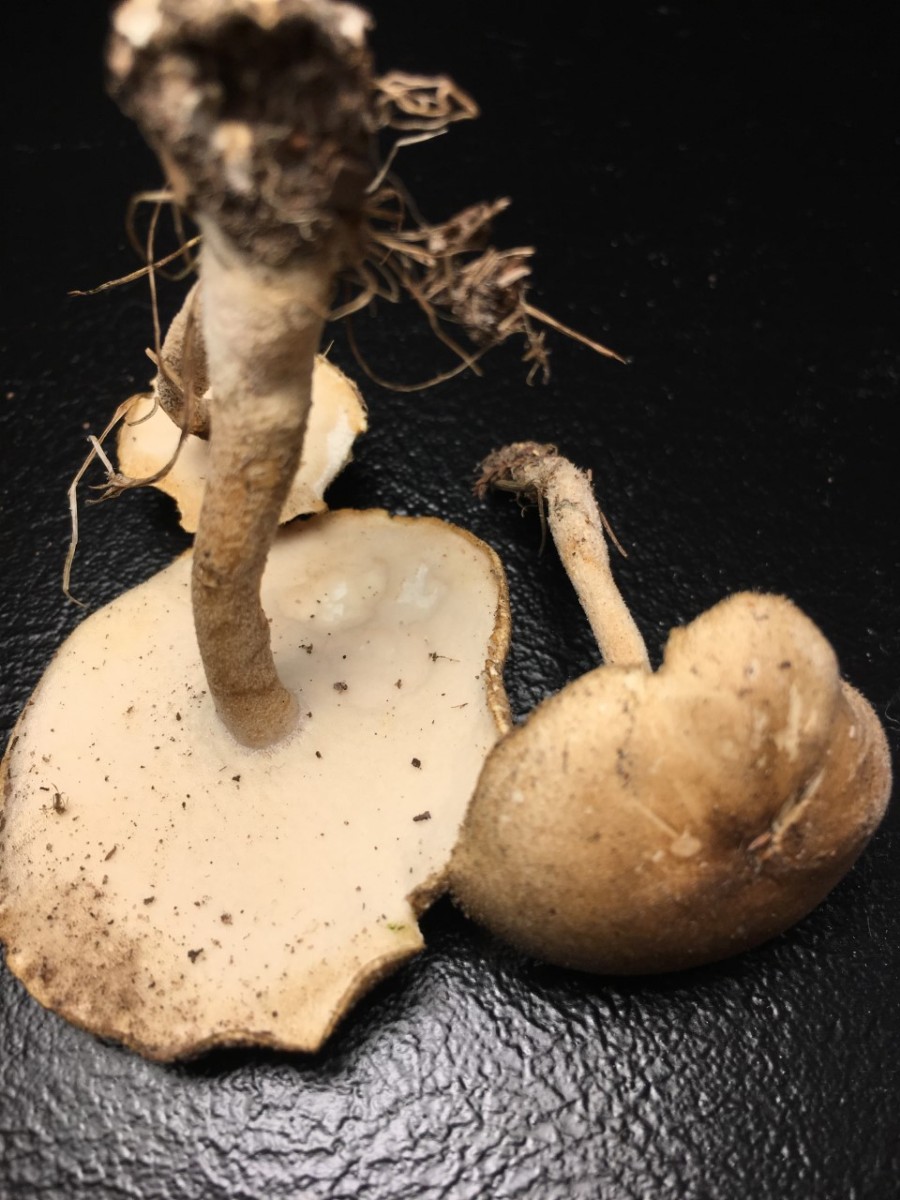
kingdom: Fungi
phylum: Basidiomycota
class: Agaricomycetes
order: Polyporales
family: Polyporaceae
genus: Lentinus
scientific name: Lentinus substrictus
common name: forårs-stilkporesvamp
